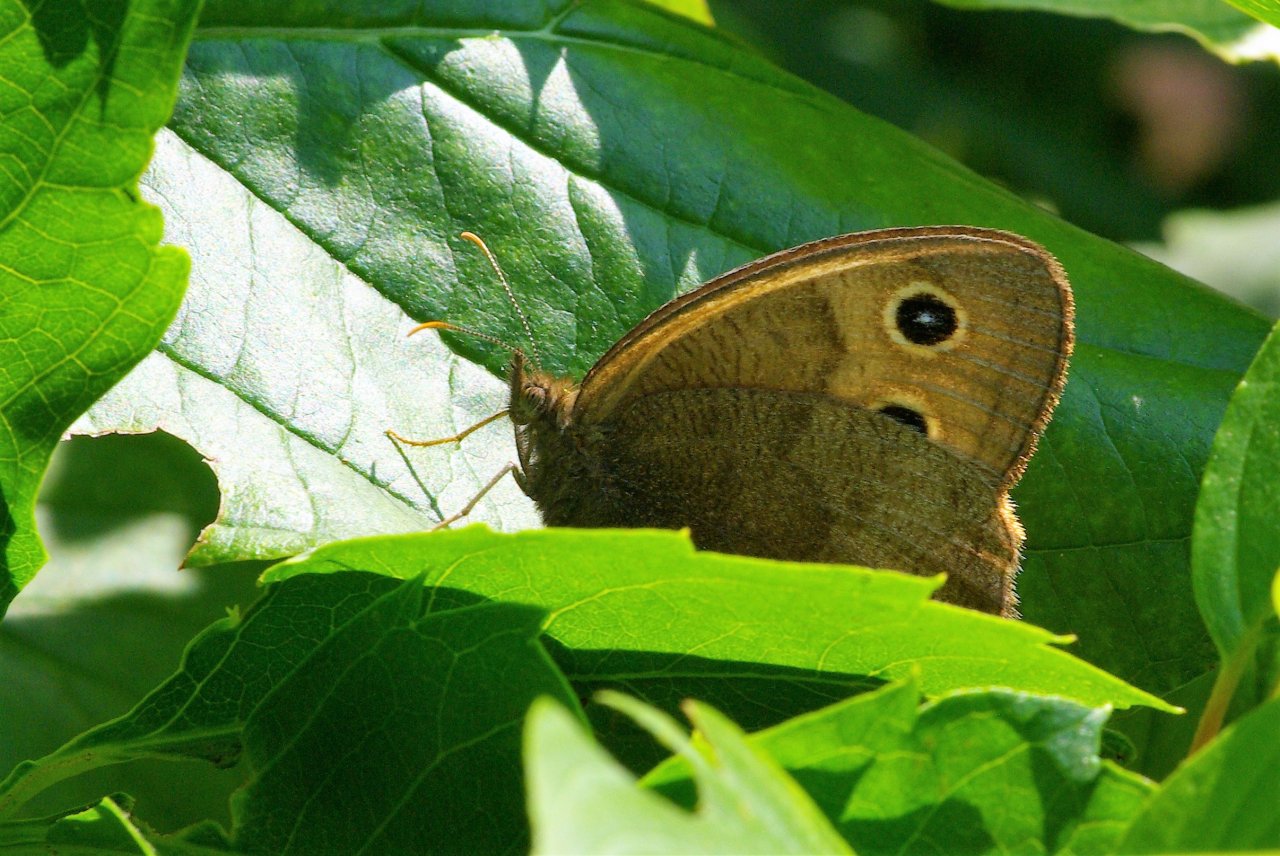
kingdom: Animalia
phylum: Arthropoda
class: Insecta
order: Lepidoptera
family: Nymphalidae
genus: Cercyonis
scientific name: Cercyonis pegala
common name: Common Wood-Nymph
